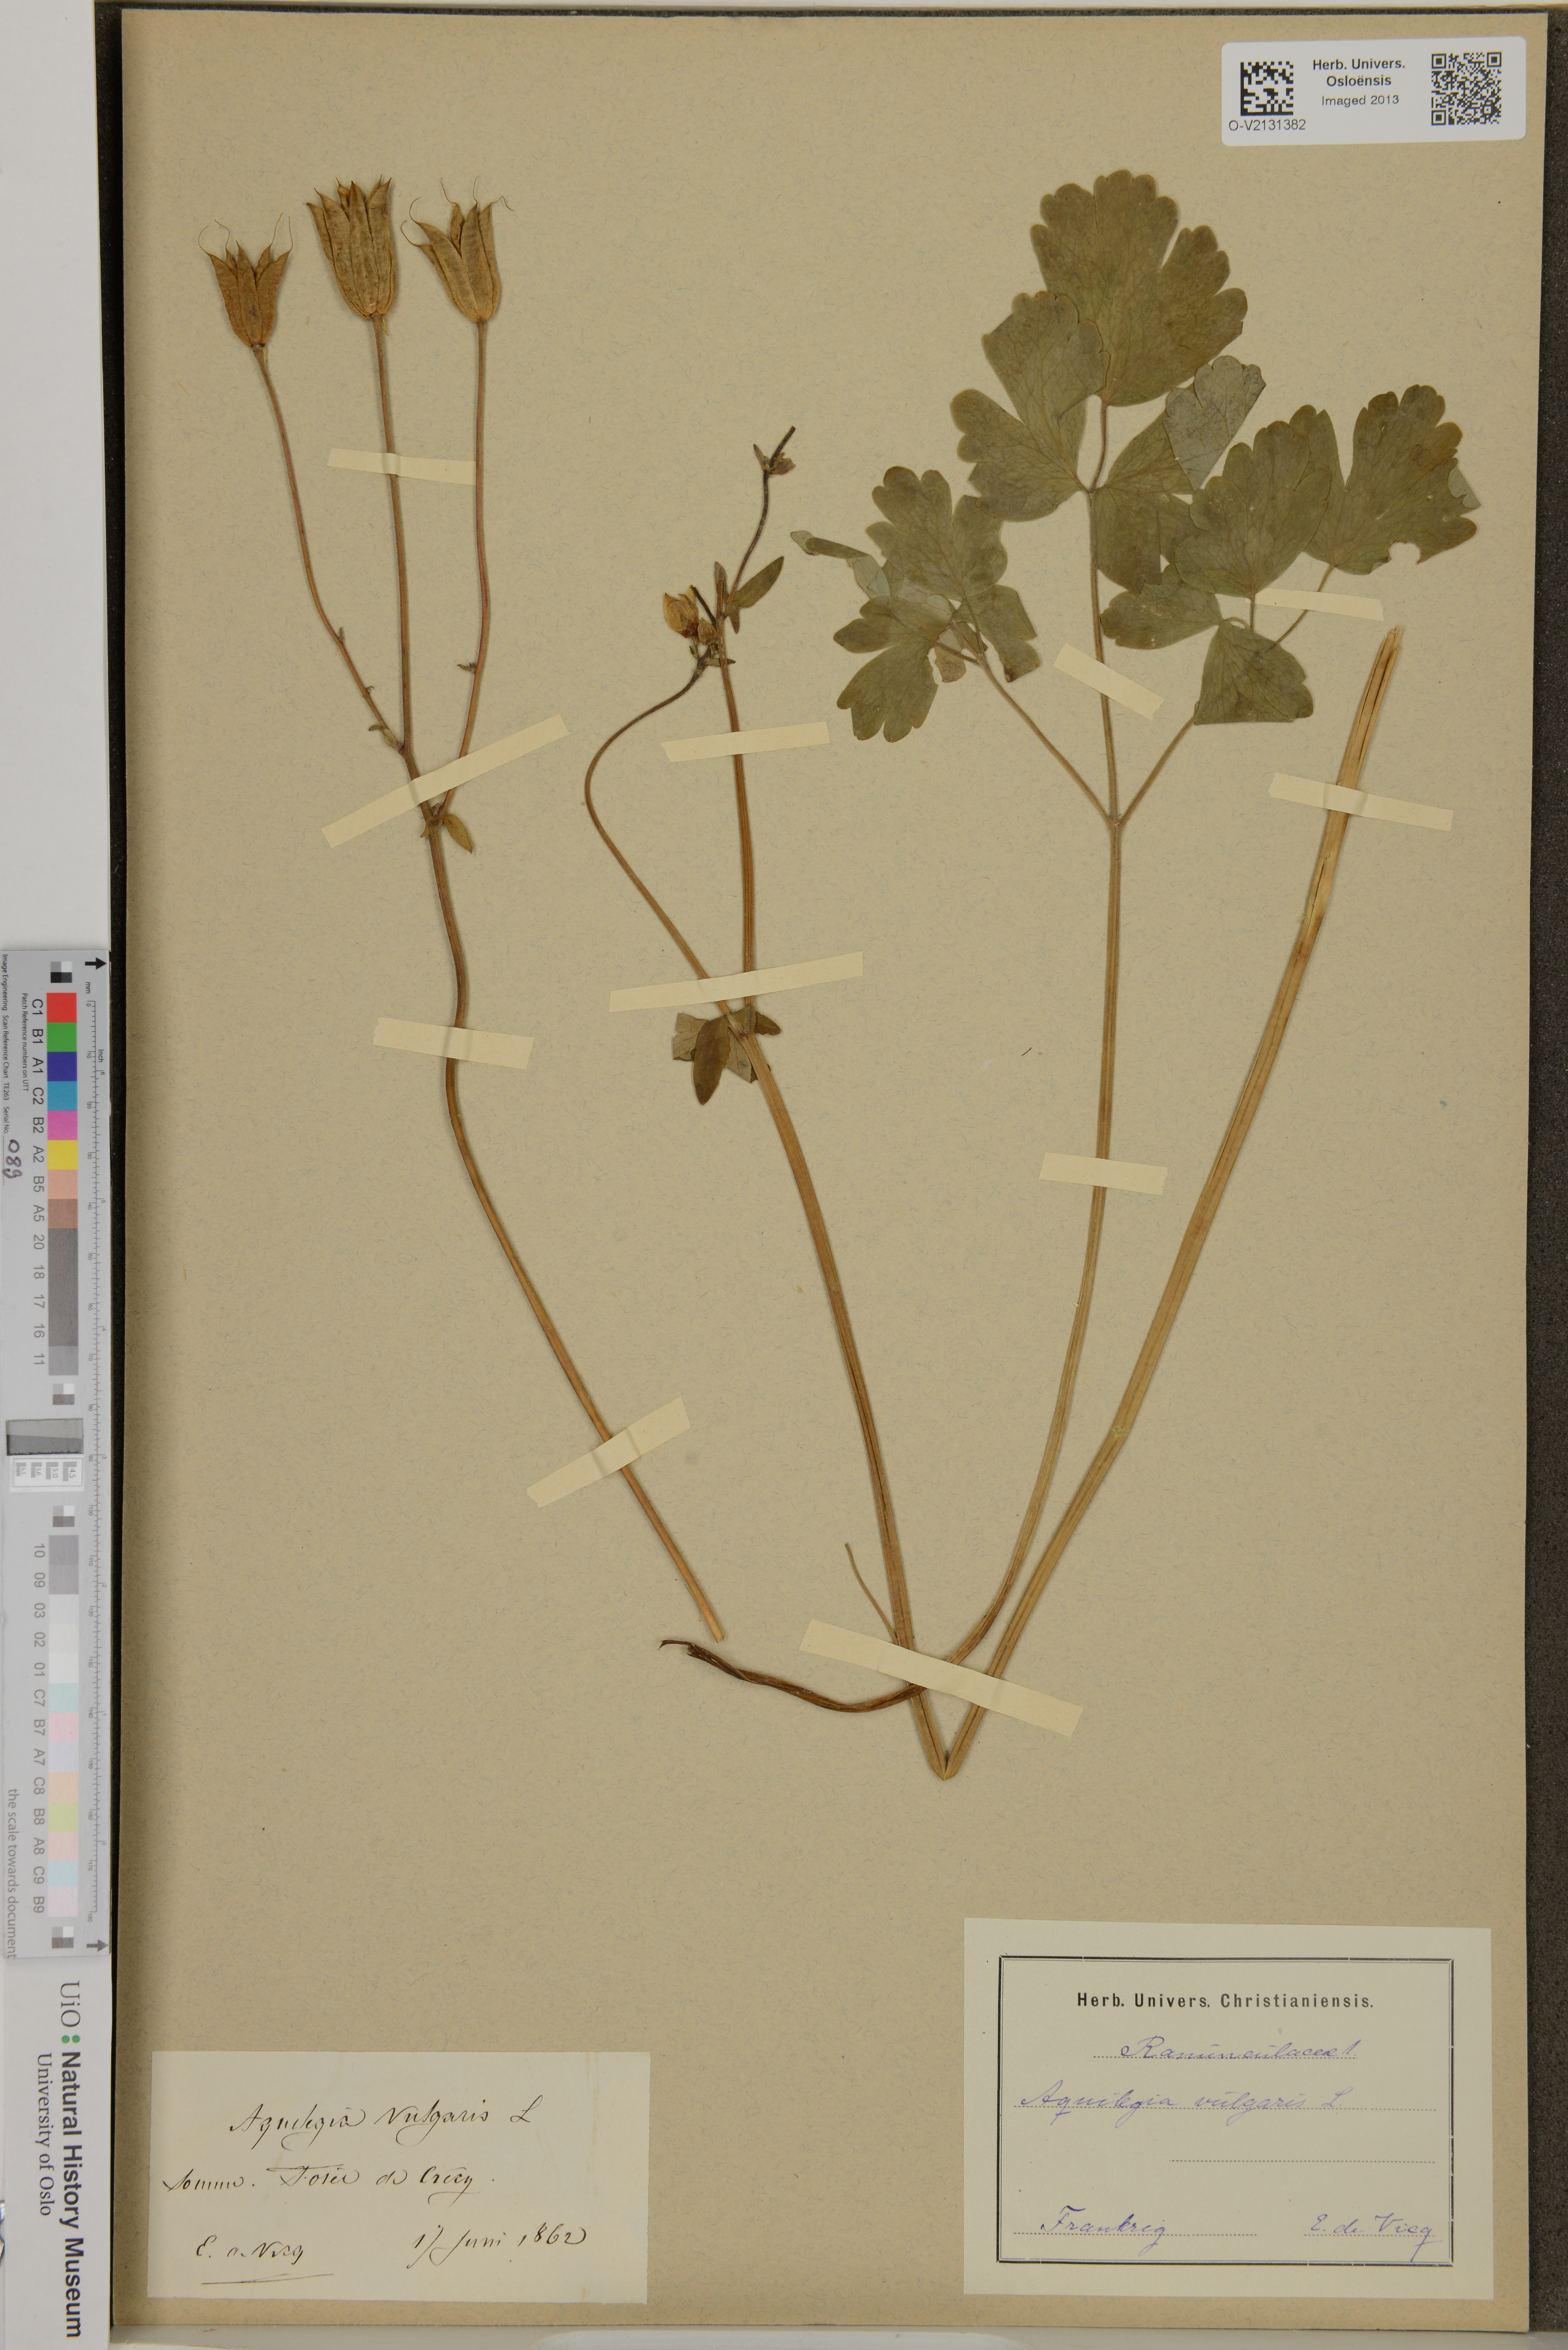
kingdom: Plantae
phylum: Tracheophyta
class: Magnoliopsida
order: Ranunculales
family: Ranunculaceae
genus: Aquilegia
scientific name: Aquilegia vulgaris
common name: Columbine
